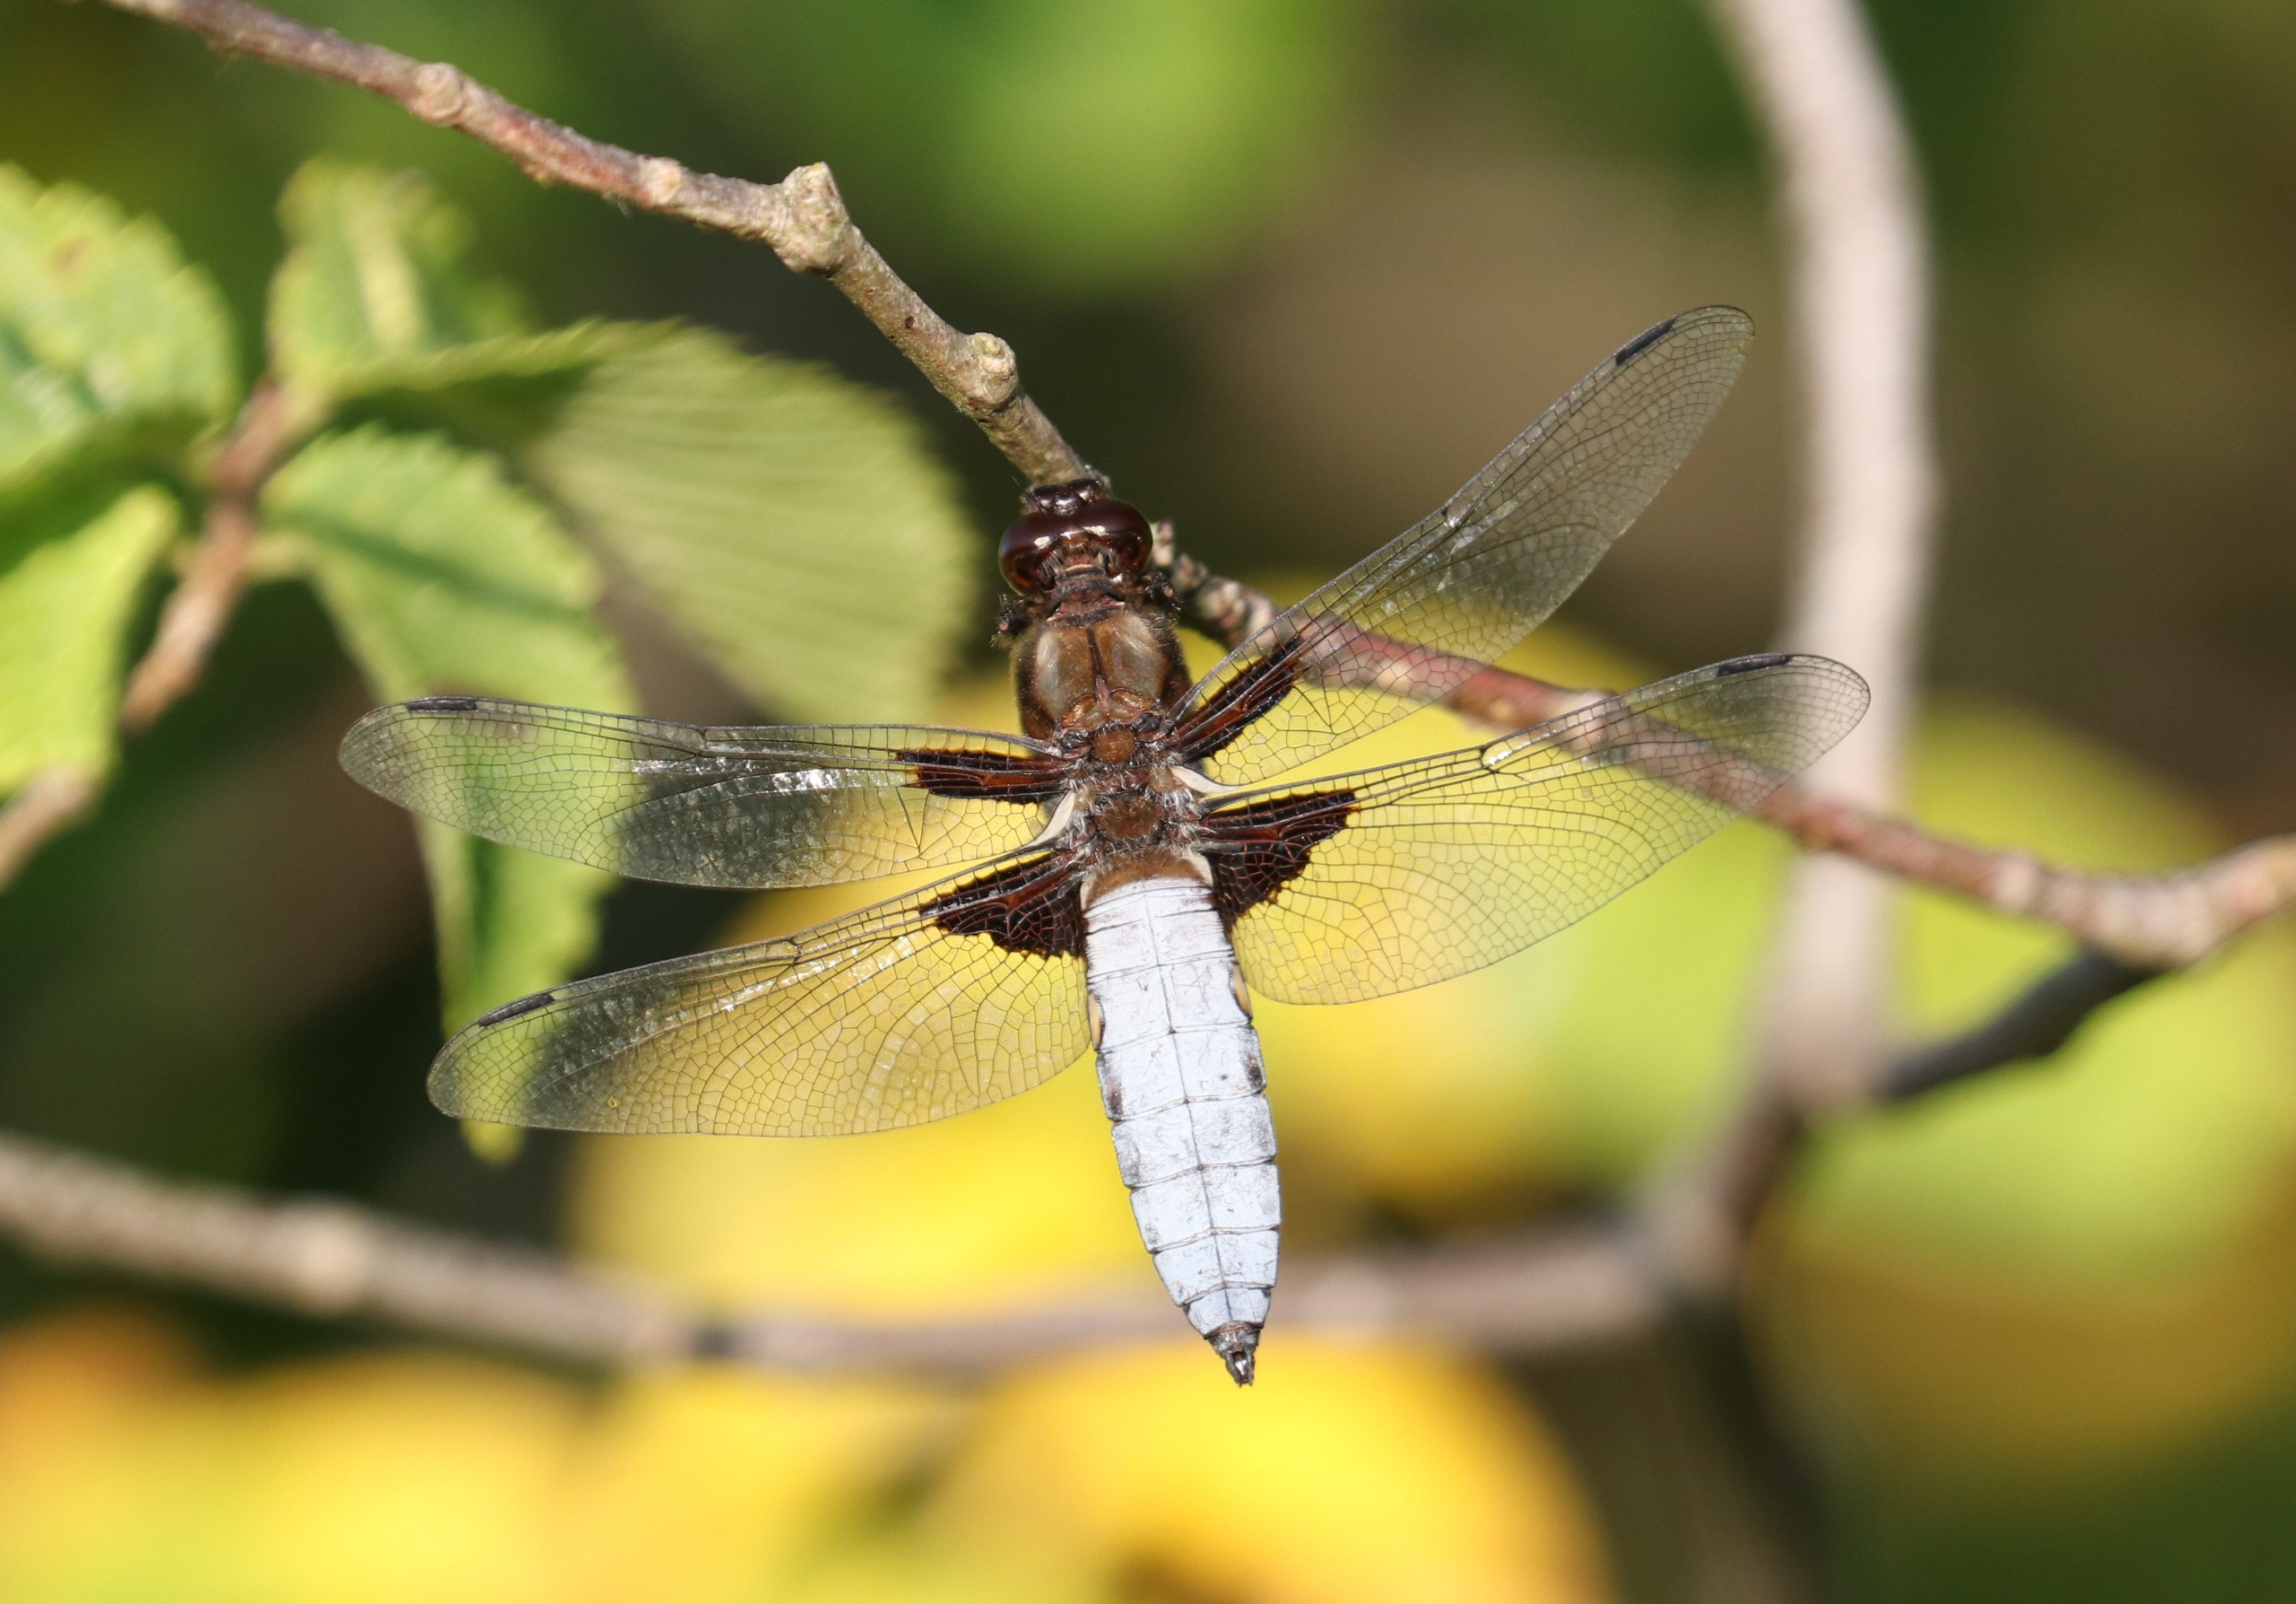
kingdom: Animalia
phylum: Arthropoda
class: Insecta
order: Odonata
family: Libellulidae
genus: Libellula
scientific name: Libellula depressa
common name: Blå libel
